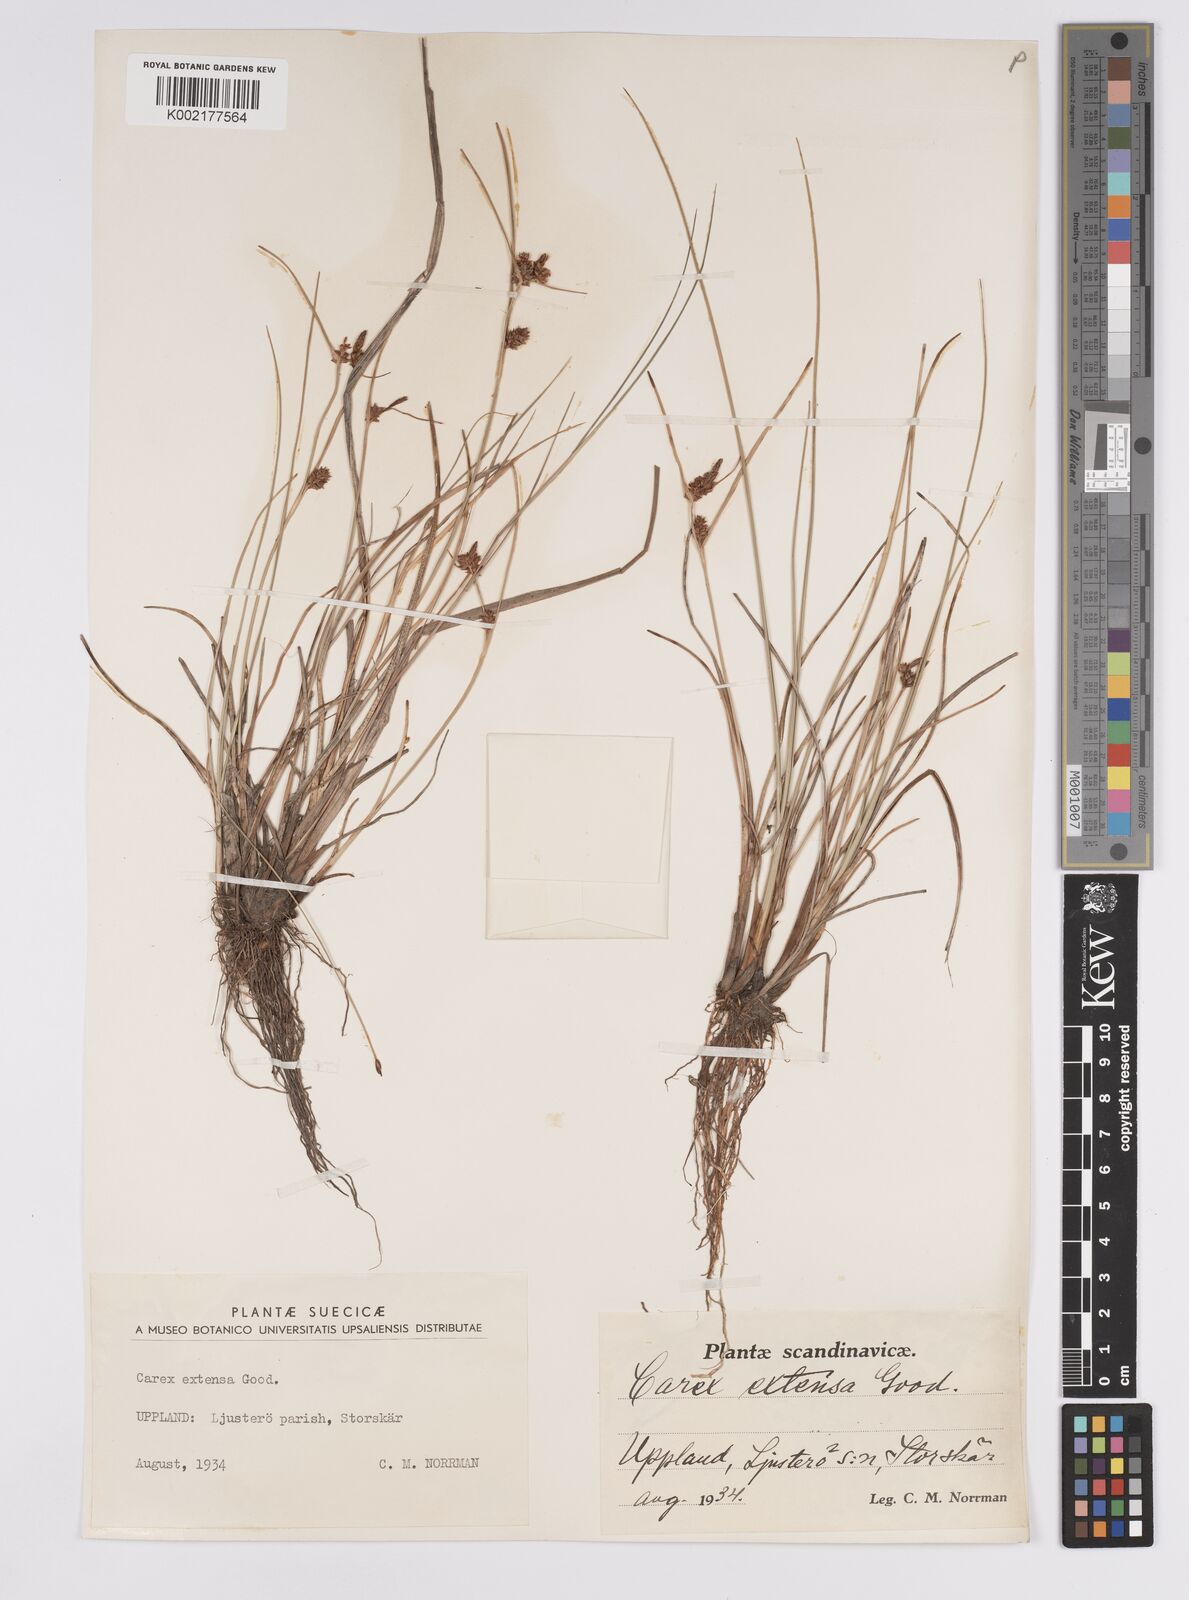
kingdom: Plantae
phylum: Tracheophyta
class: Liliopsida
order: Poales
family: Cyperaceae
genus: Carex
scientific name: Carex extensa
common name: Long-bracted sedge
